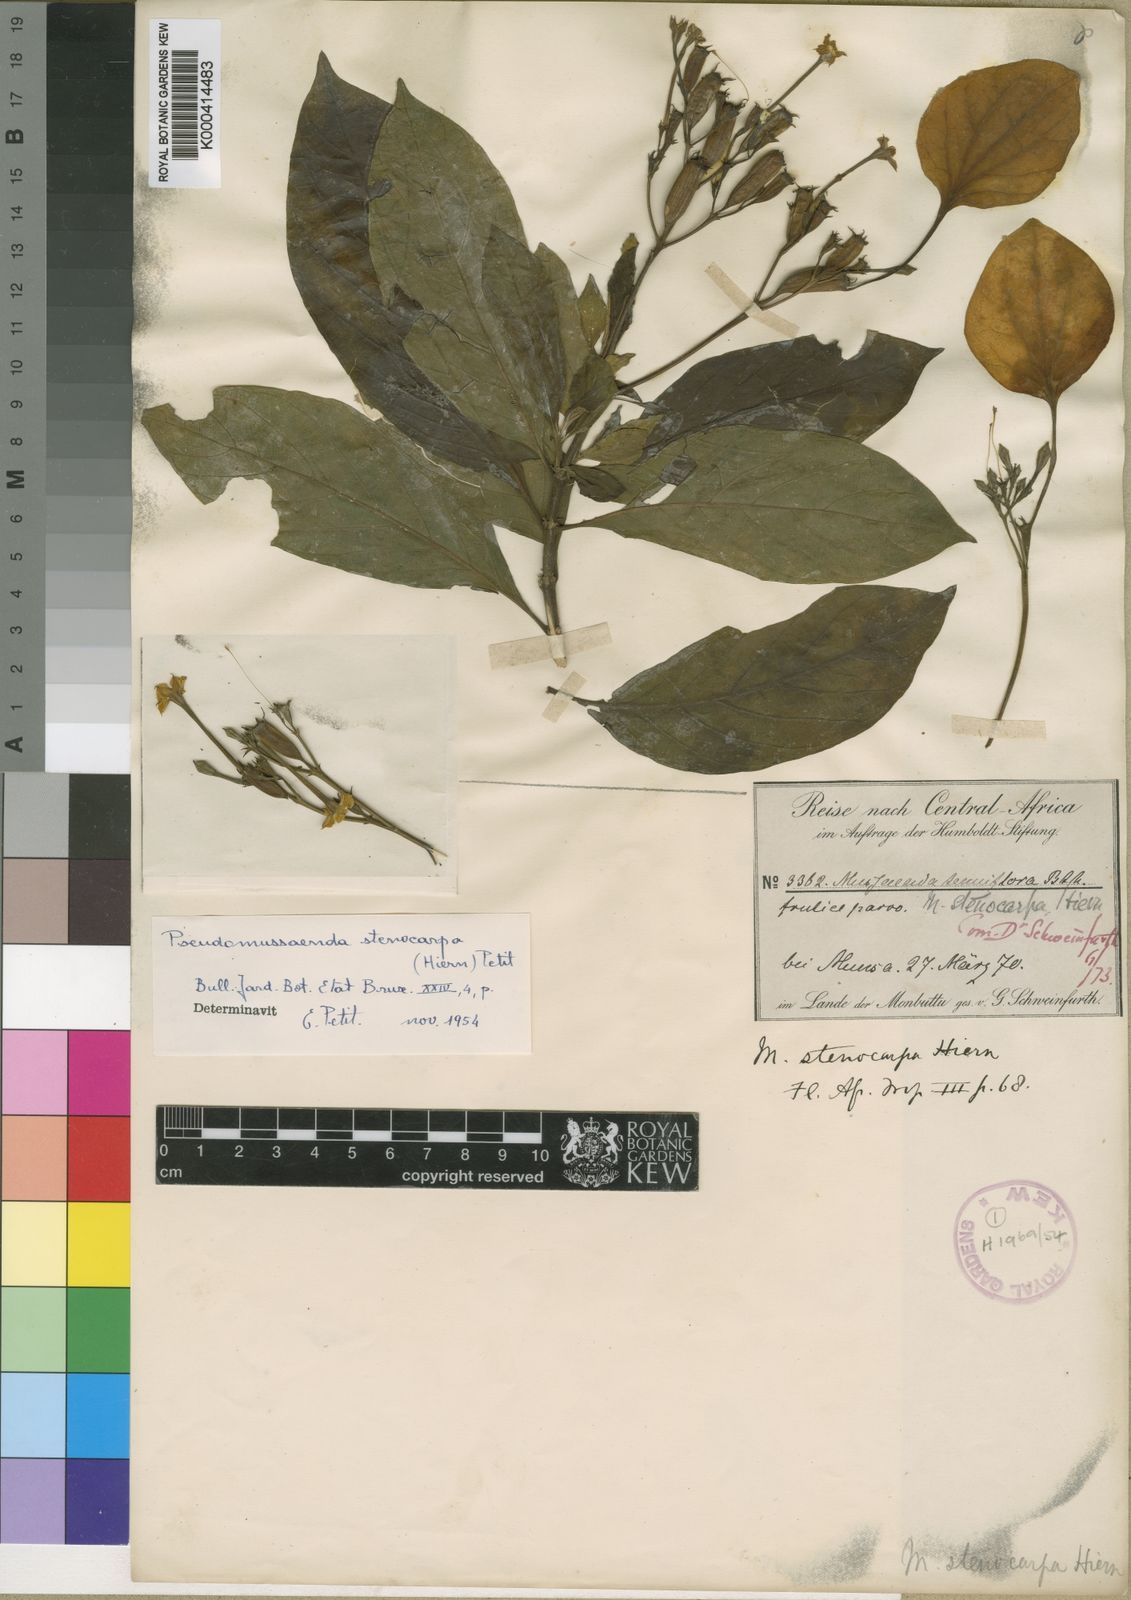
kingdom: Plantae
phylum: Tracheophyta
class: Magnoliopsida
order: Gentianales
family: Rubiaceae
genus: Pseudomussaenda
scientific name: Pseudomussaenda stenocarpa
